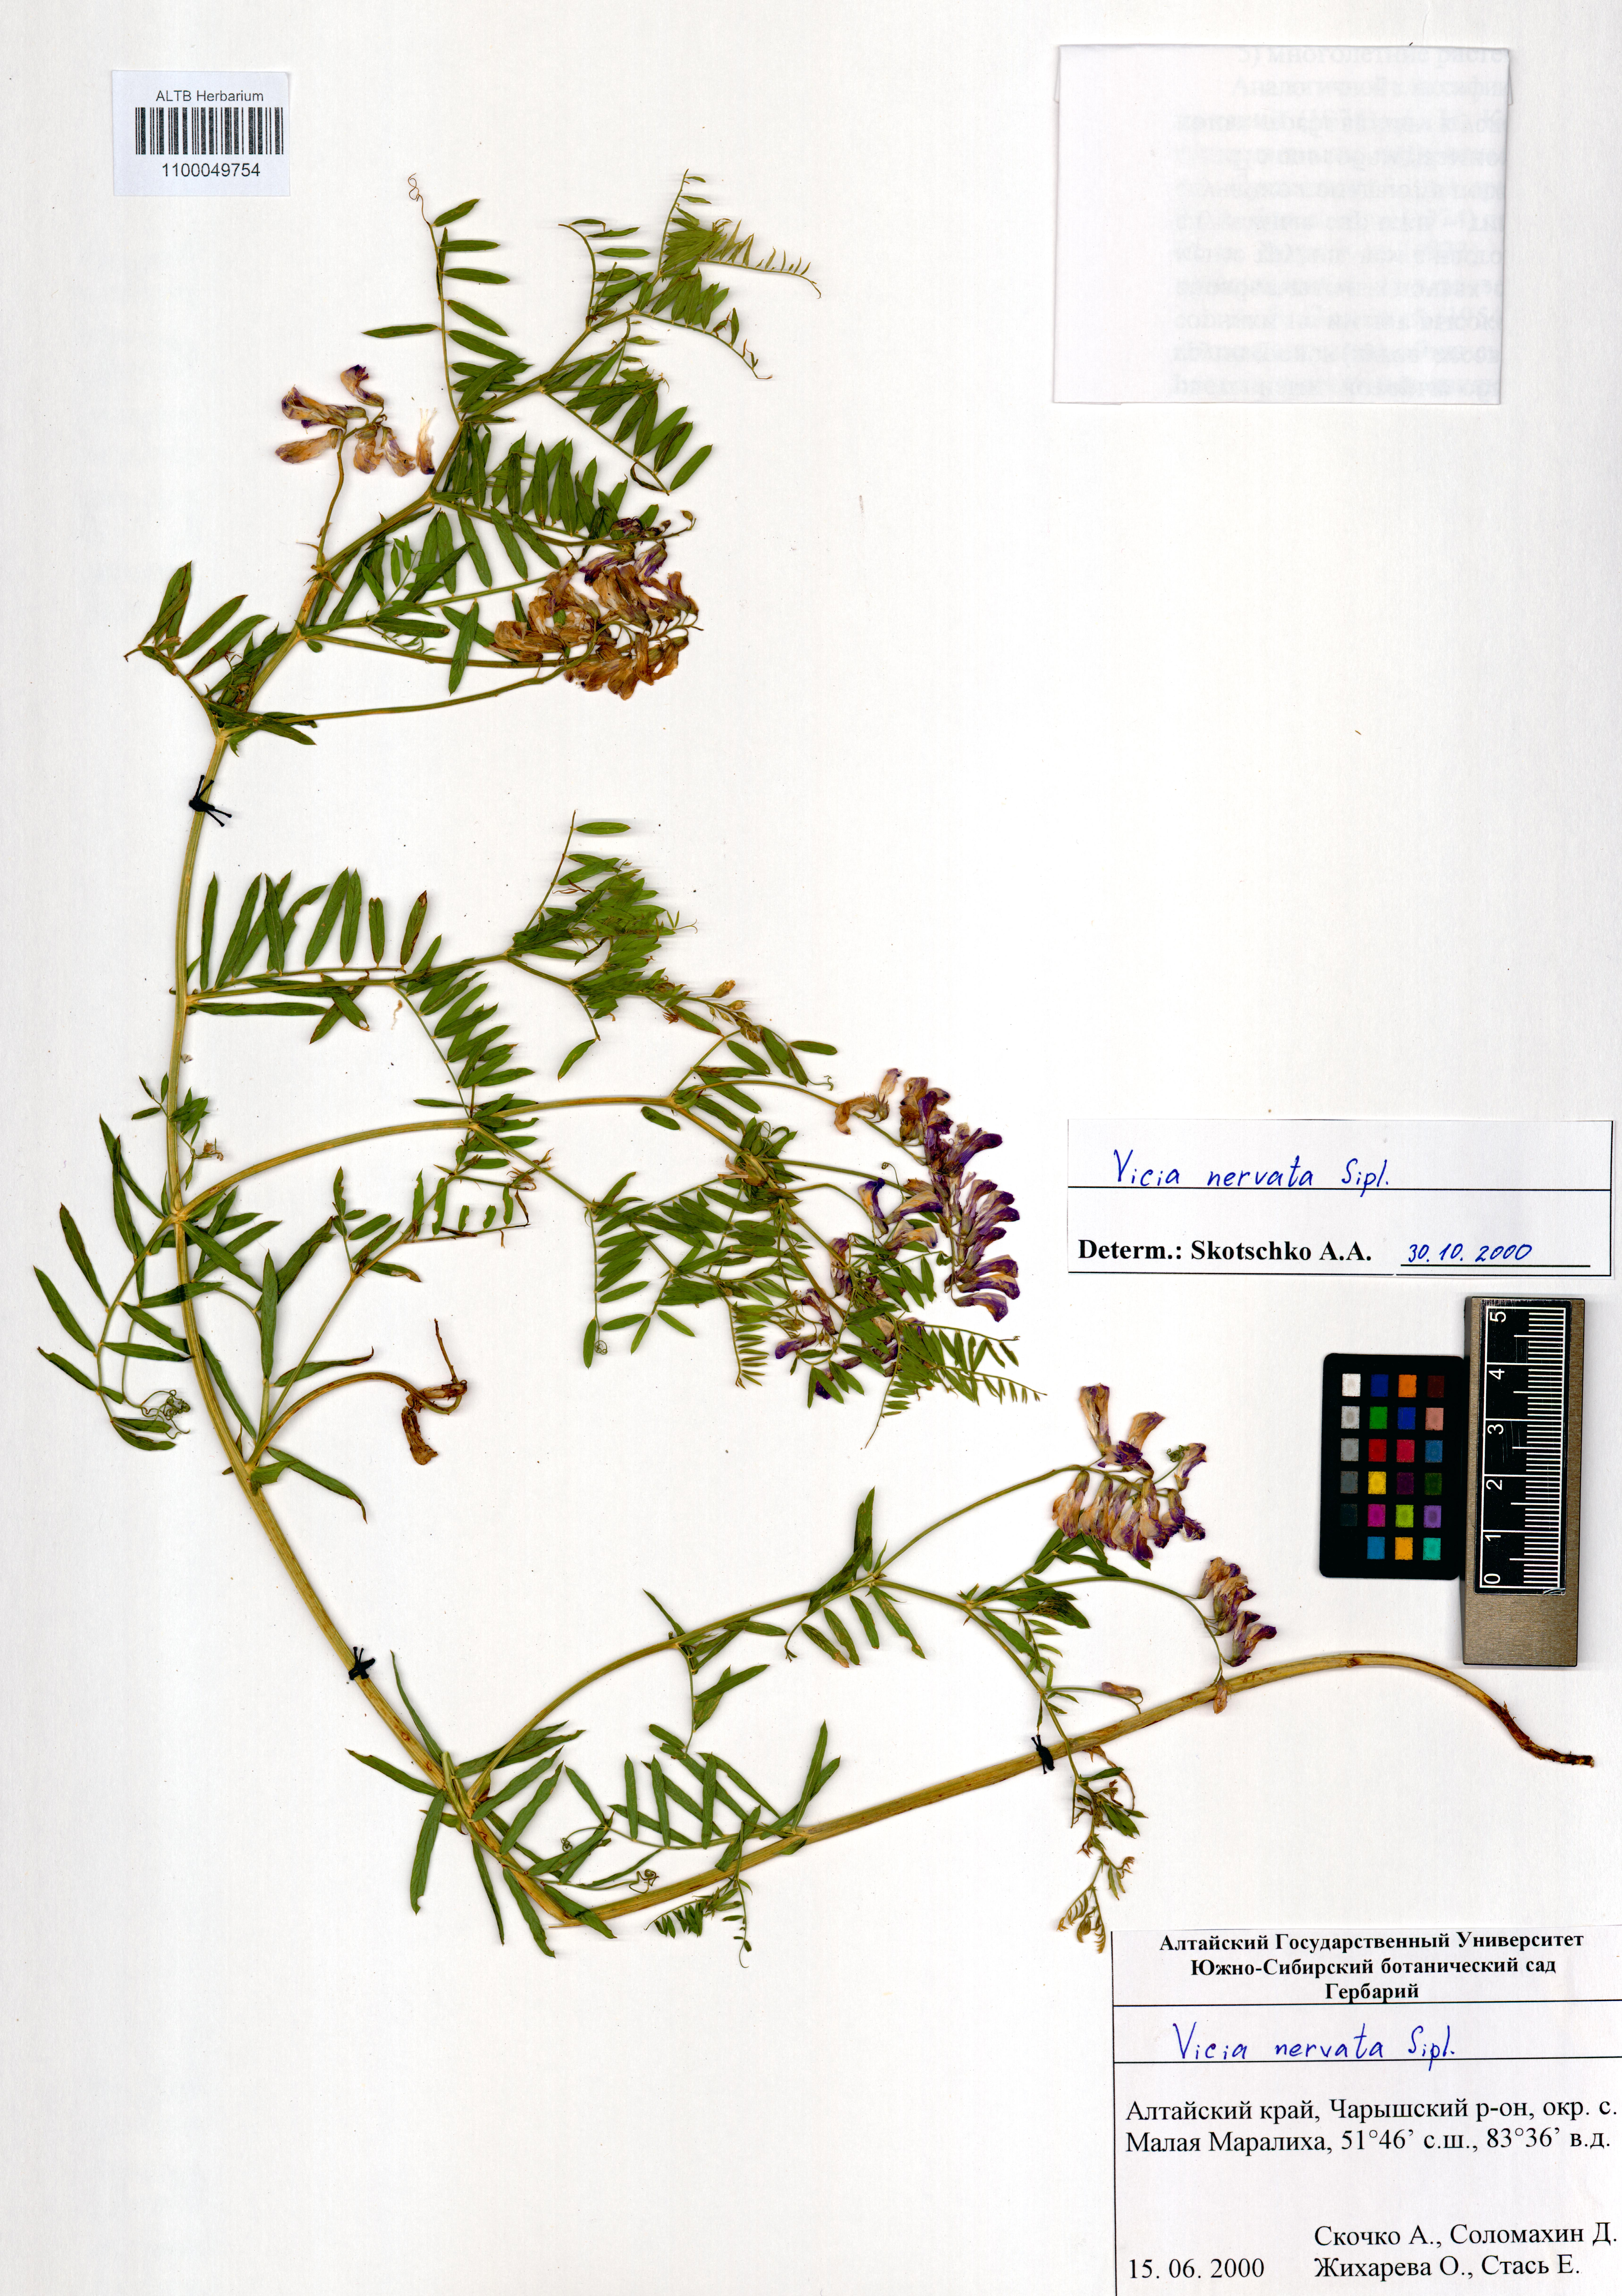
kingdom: Plantae
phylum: Tracheophyta
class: Magnoliopsida
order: Fabales
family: Fabaceae
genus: Vicia
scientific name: Vicia multicaulis
